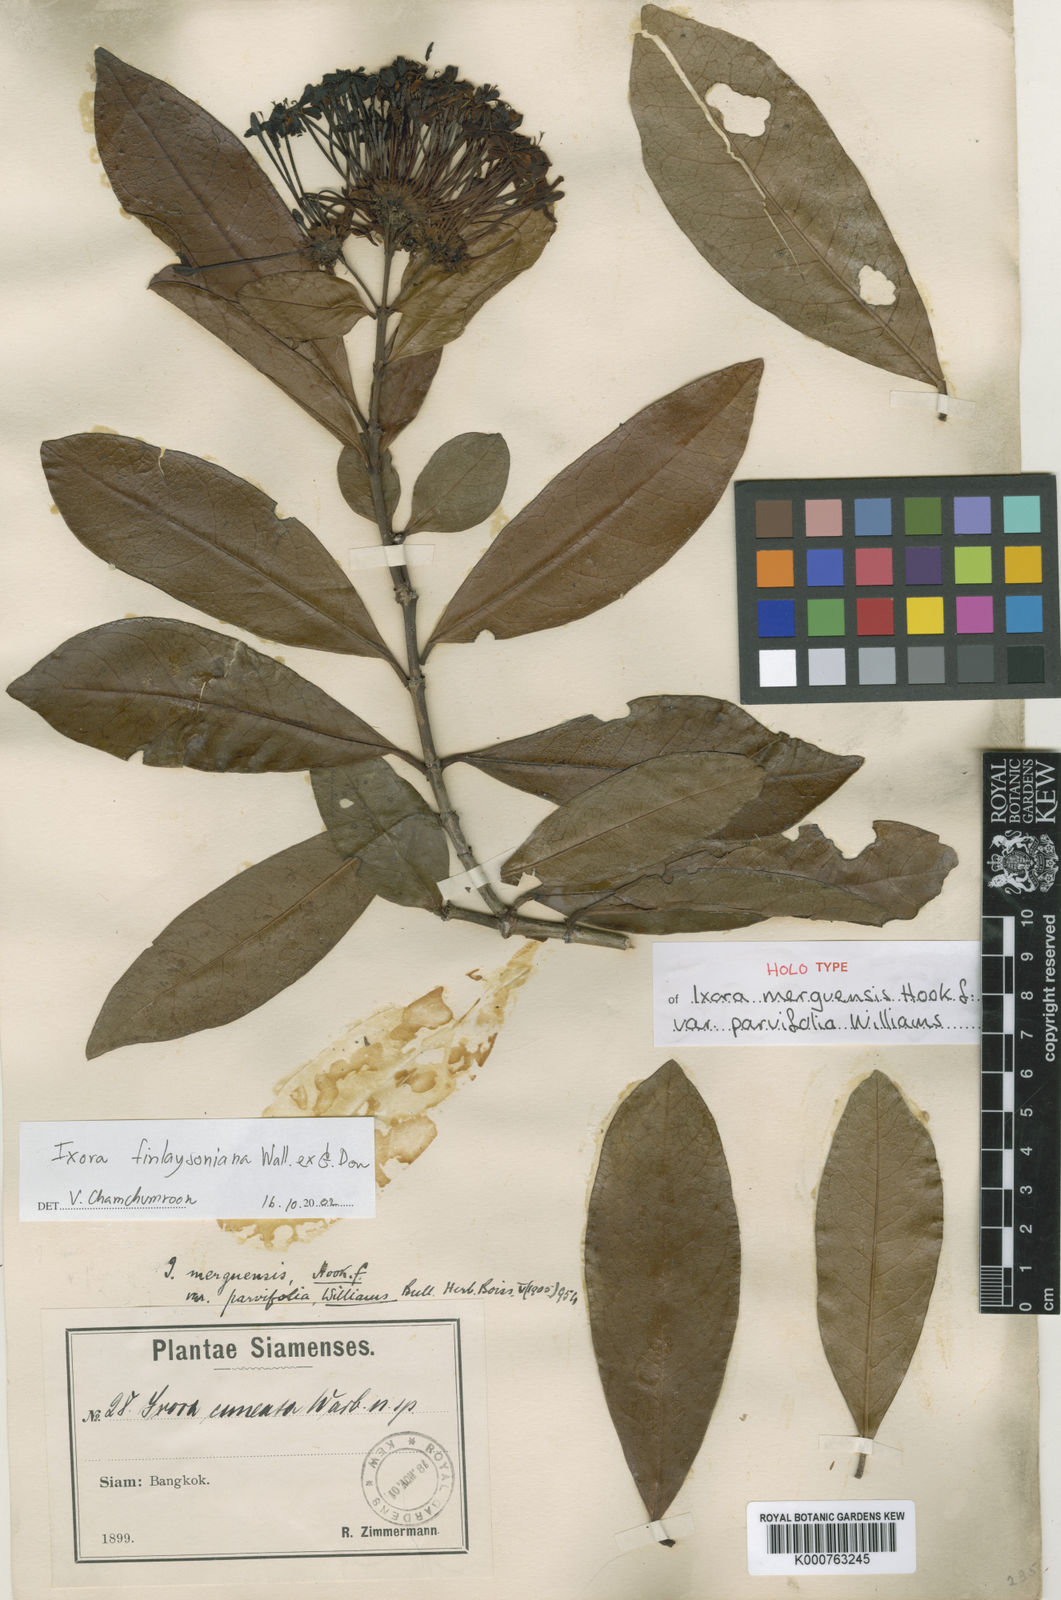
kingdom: Plantae
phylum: Tracheophyta
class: Magnoliopsida
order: Gentianales
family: Rubiaceae
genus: Ixora
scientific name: Ixora finlaysoniana
